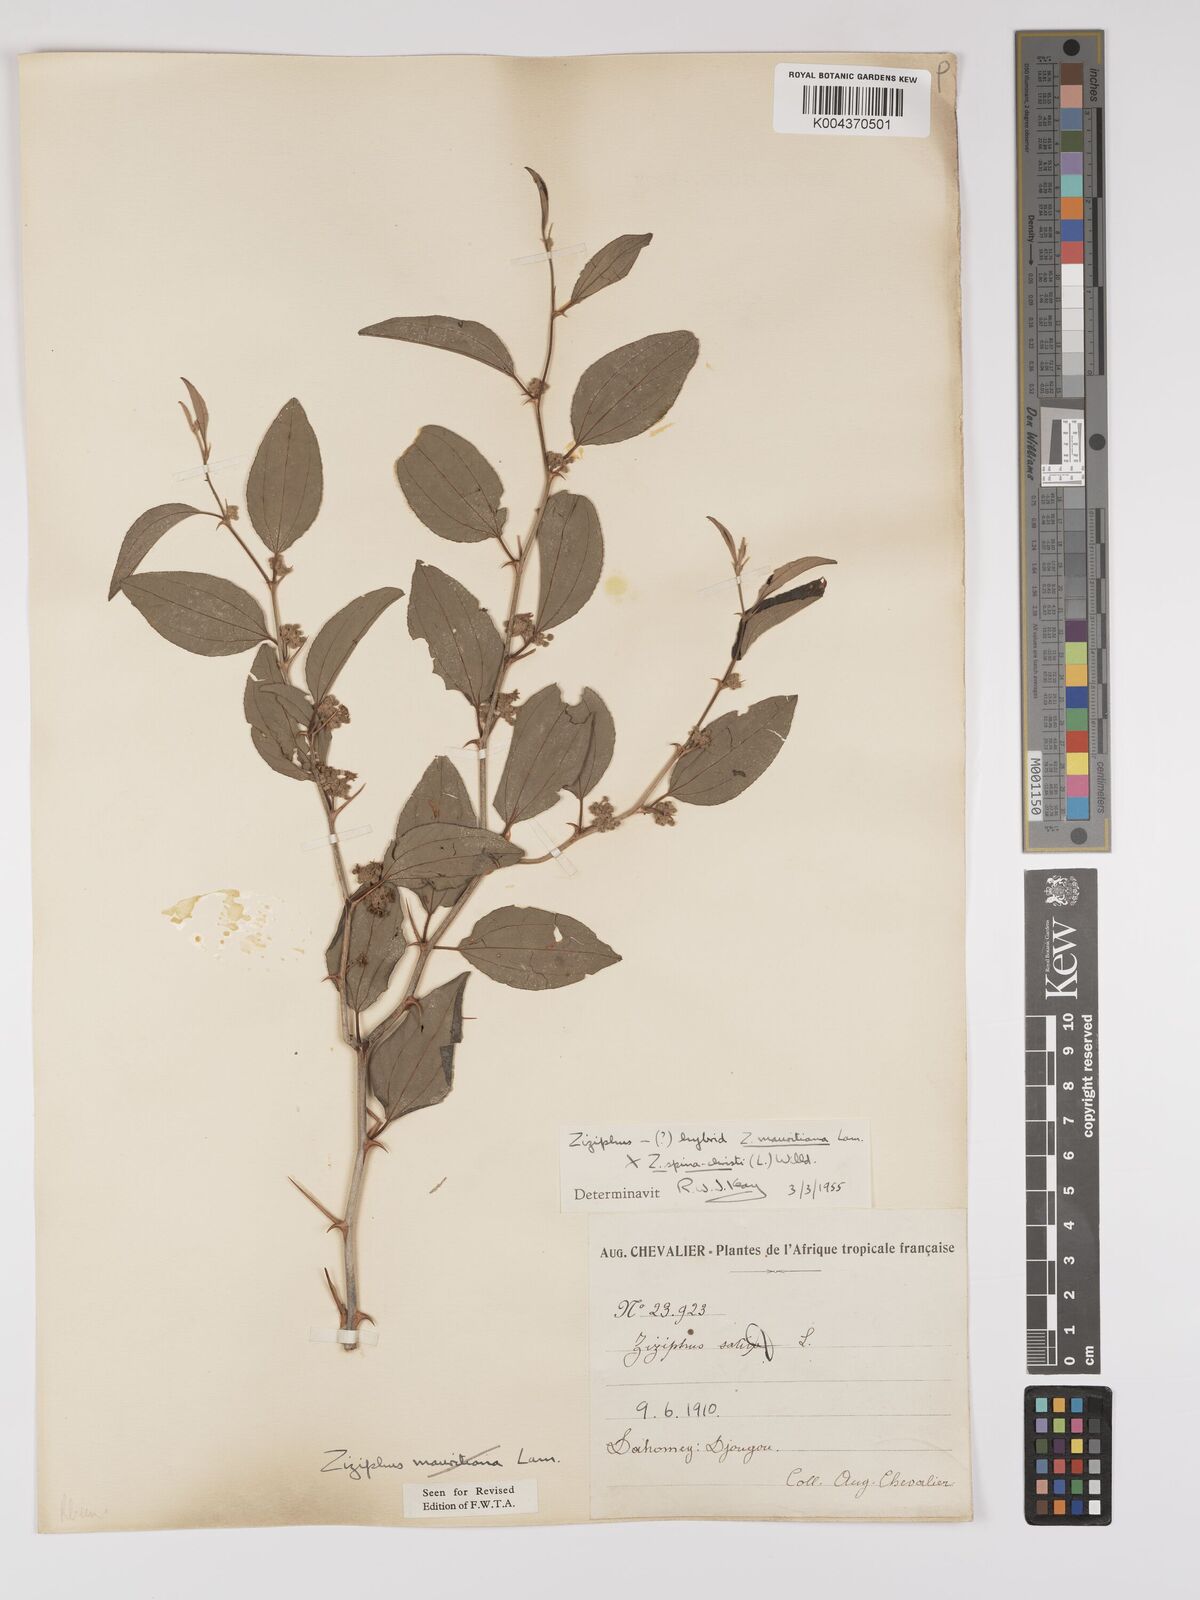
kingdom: Plantae
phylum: Tracheophyta
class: Magnoliopsida
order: Rosales
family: Rhamnaceae
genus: Ziziphus
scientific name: Ziziphus mauritiana
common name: Indian jujube
